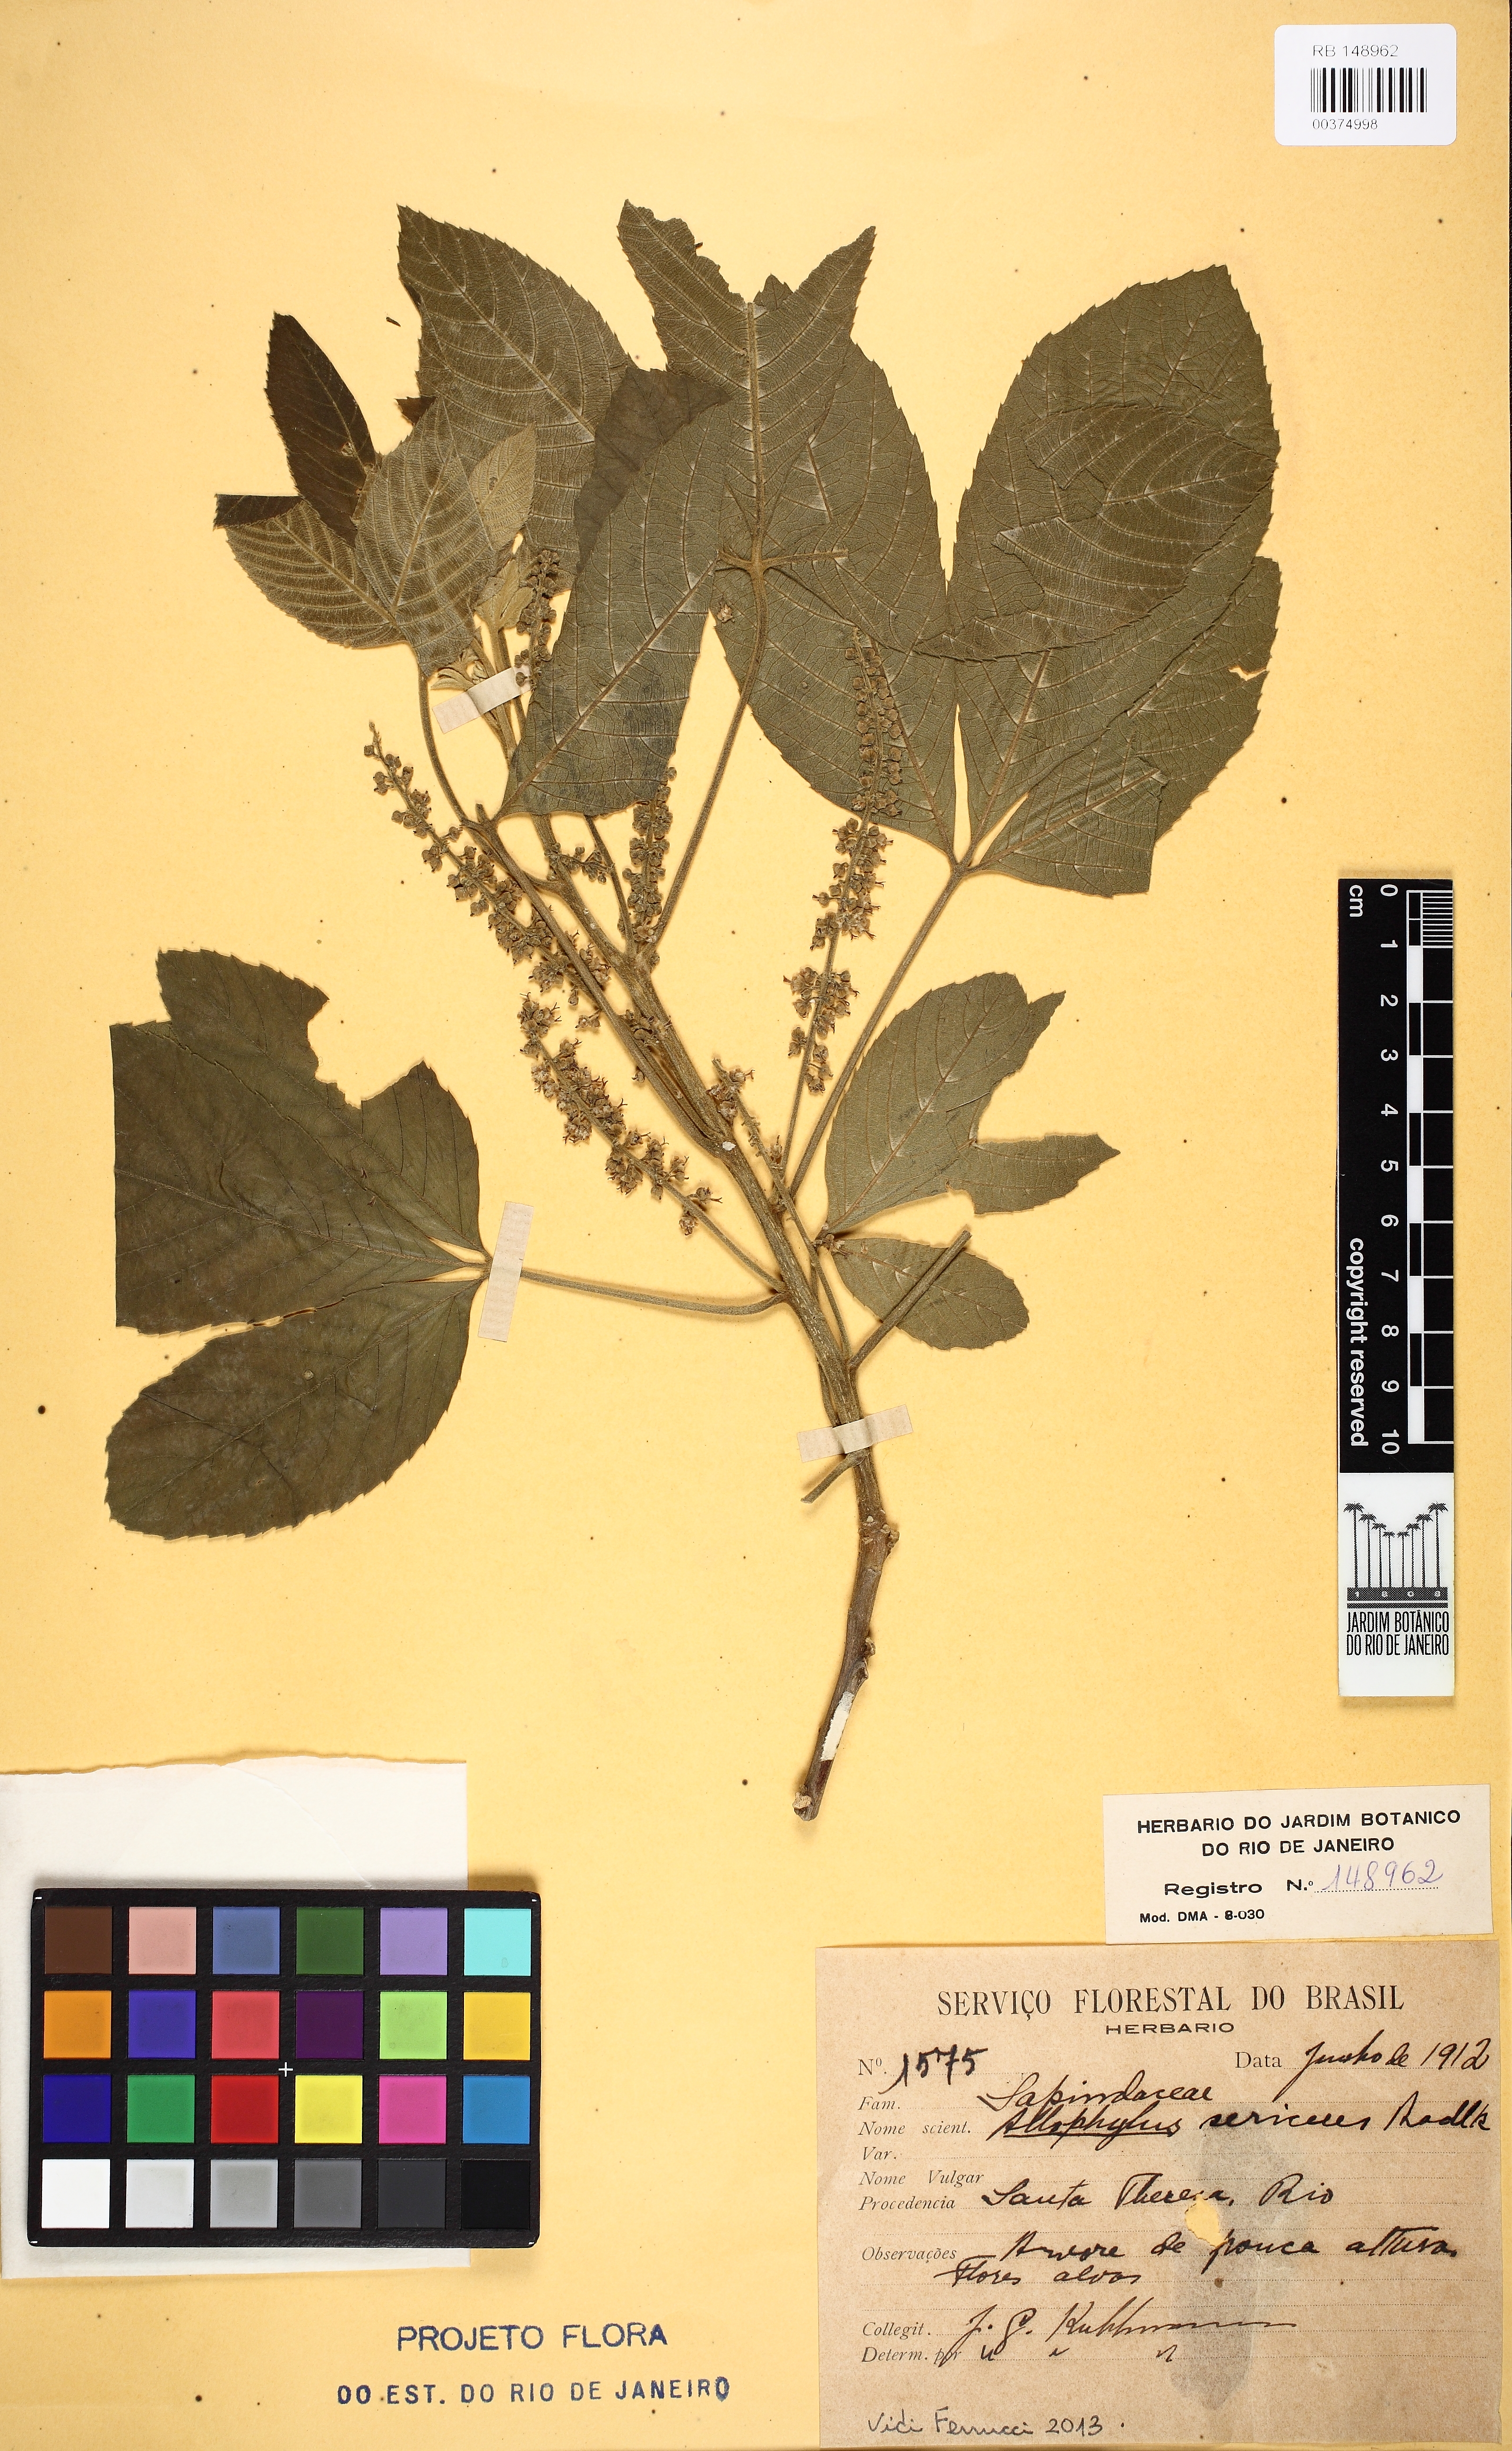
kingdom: Plantae
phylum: Tracheophyta
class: Magnoliopsida
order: Sapindales
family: Sapindaceae
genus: Allophylus
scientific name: Allophylus sericeus
